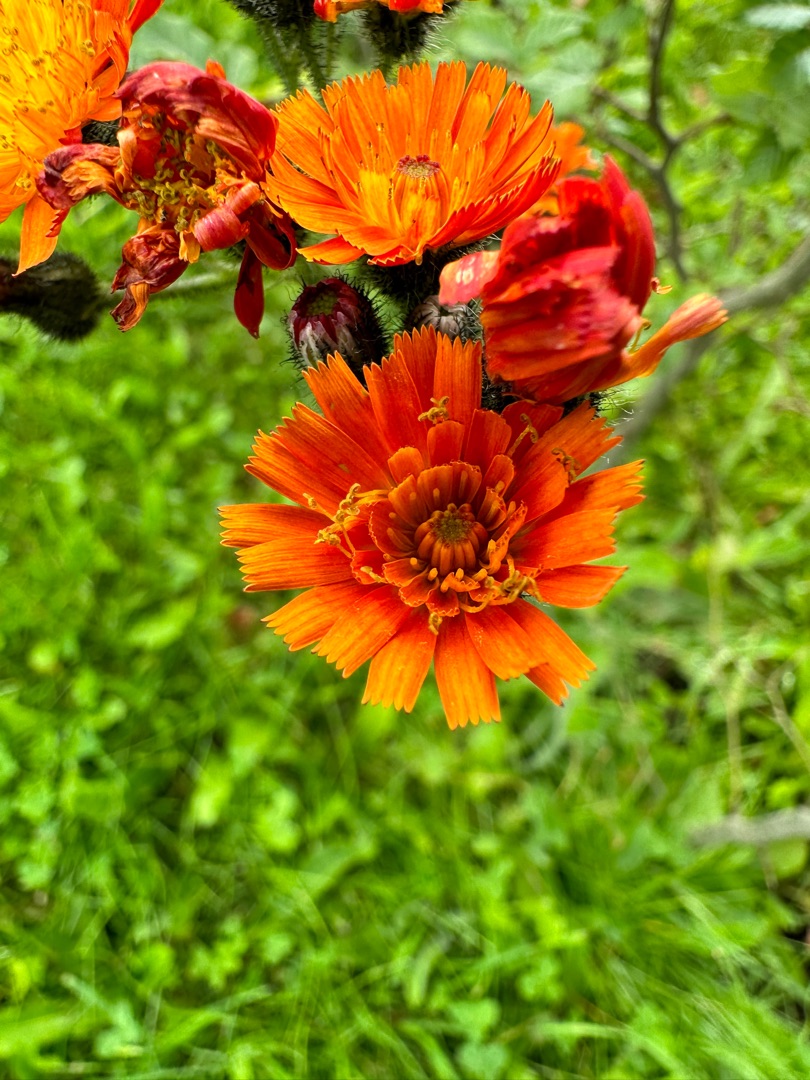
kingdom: Plantae
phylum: Tracheophyta
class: Magnoliopsida
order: Asterales
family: Asteraceae
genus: Pilosella
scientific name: Pilosella aurantiaca
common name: Pomerans-høgeurt
